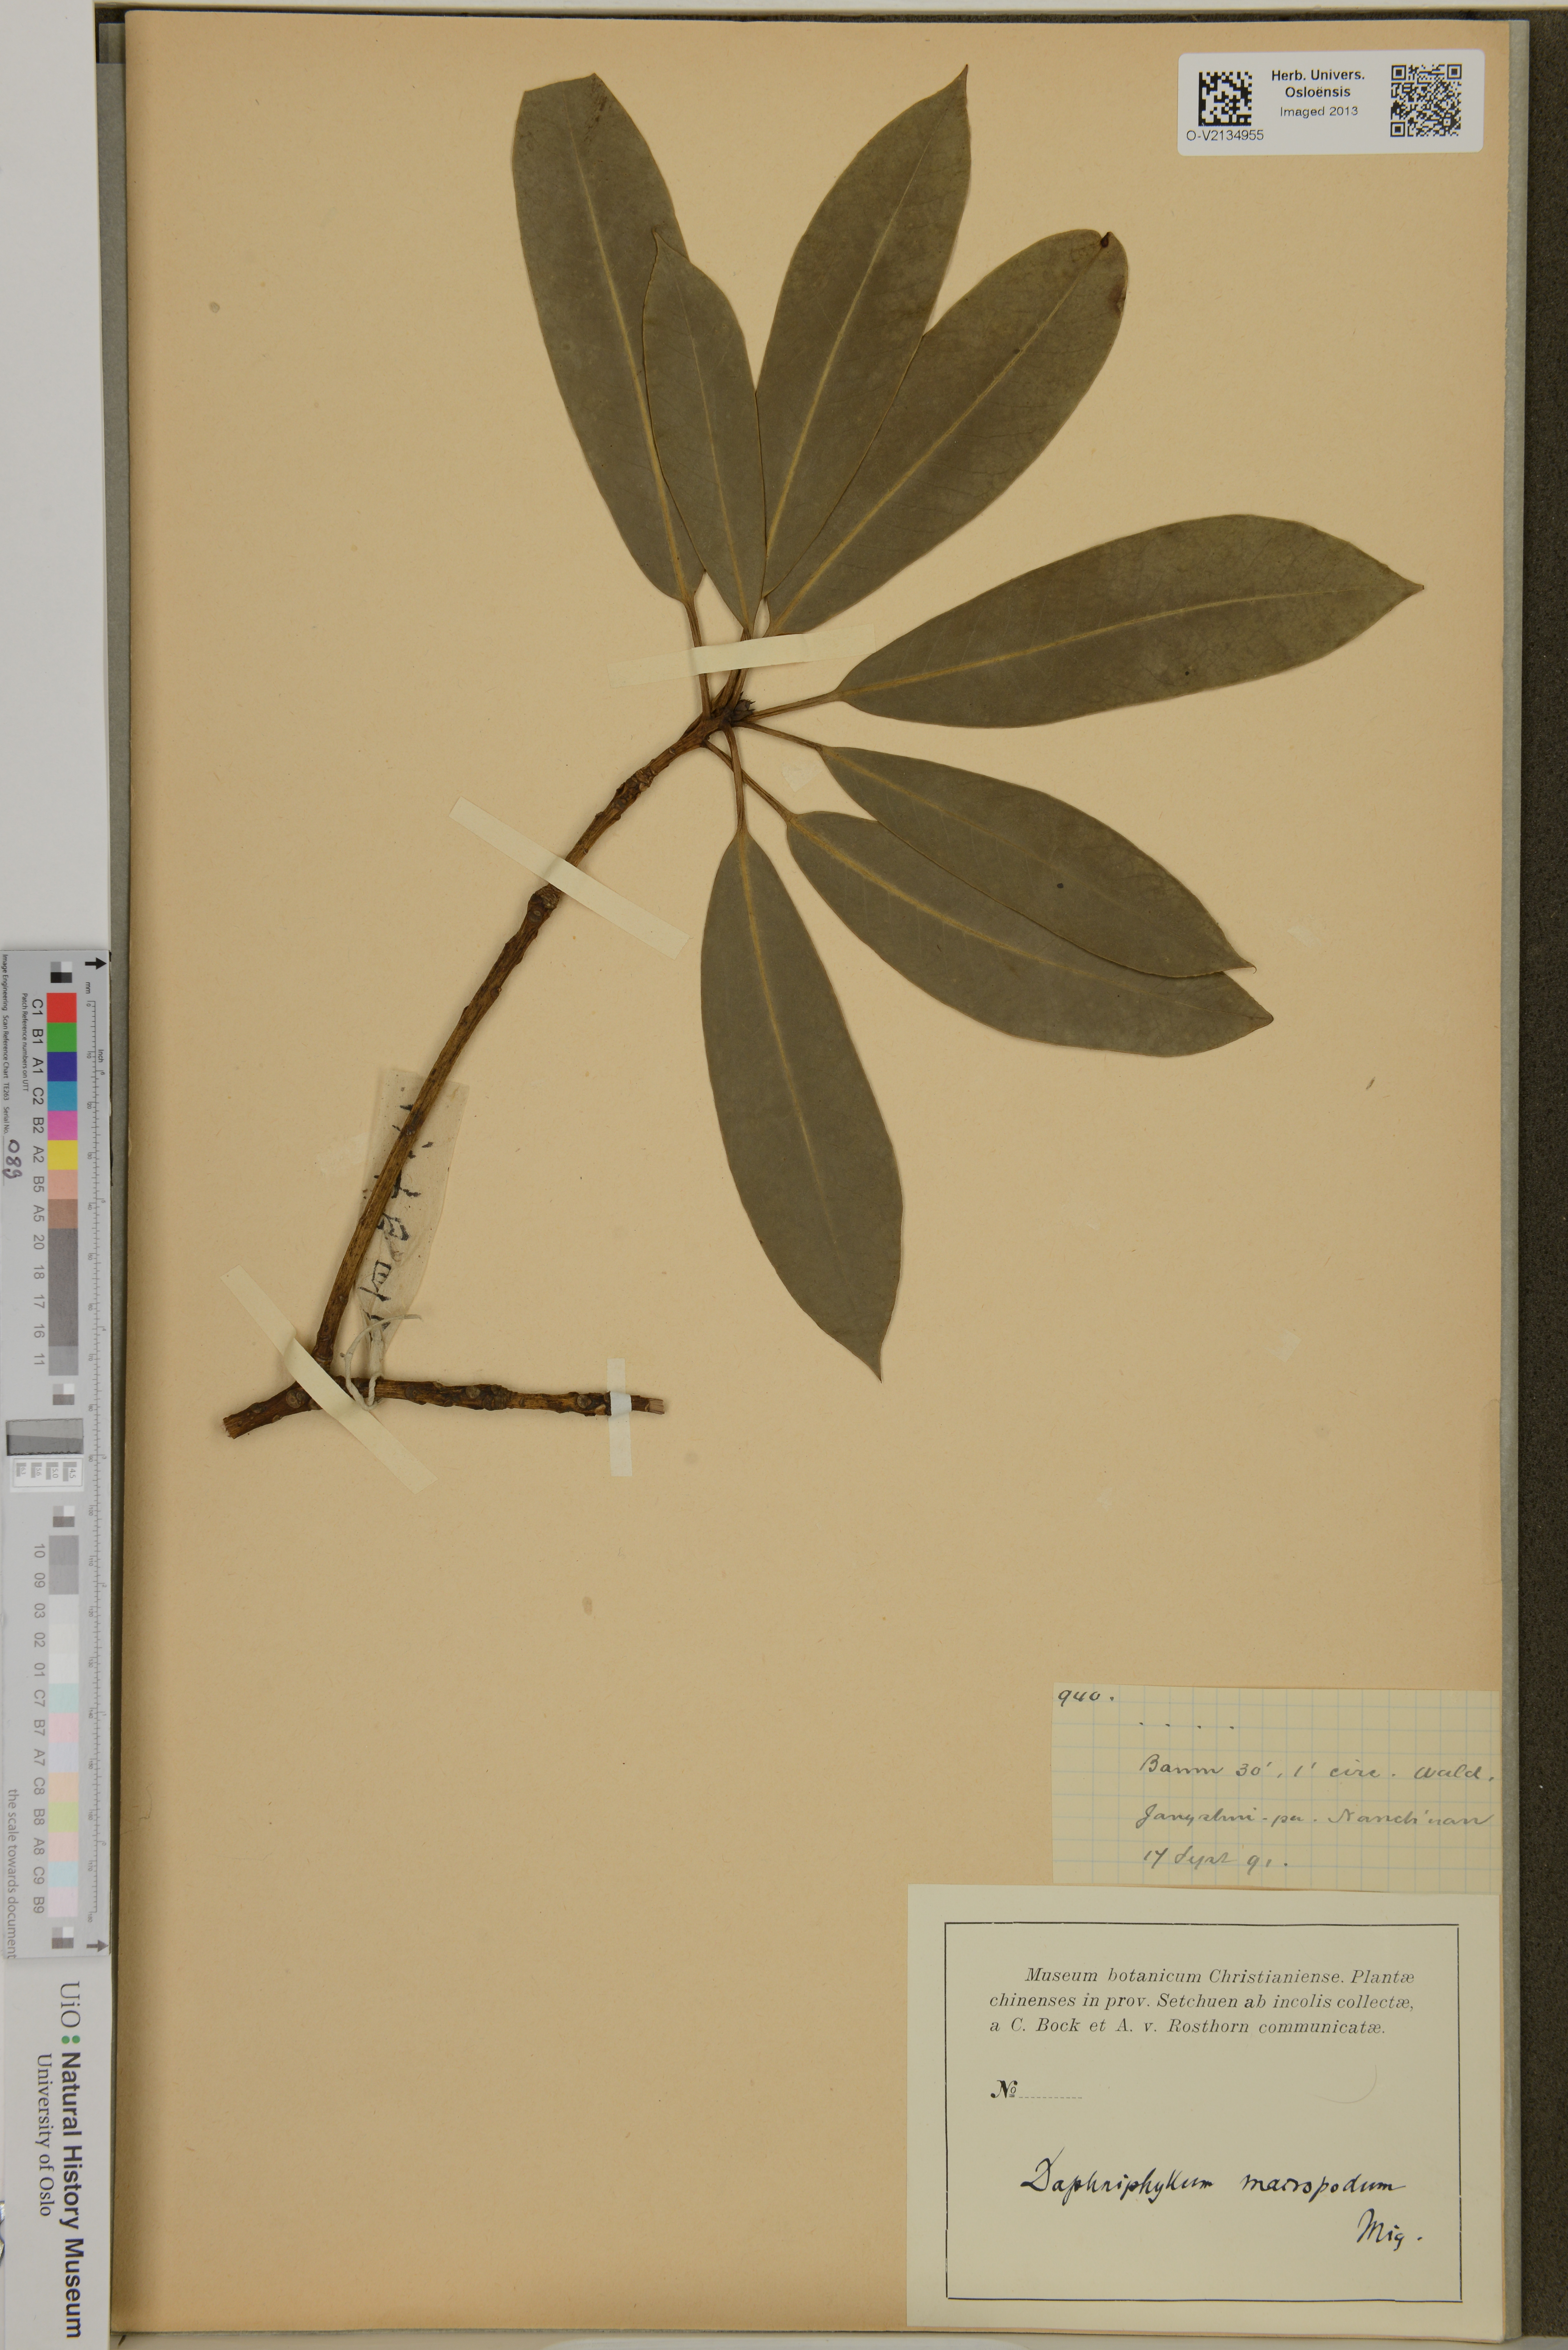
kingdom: Plantae
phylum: Tracheophyta
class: Magnoliopsida
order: Saxifragales
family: Daphniphyllaceae
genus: Daphniphyllum
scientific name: Daphniphyllum macropodum
